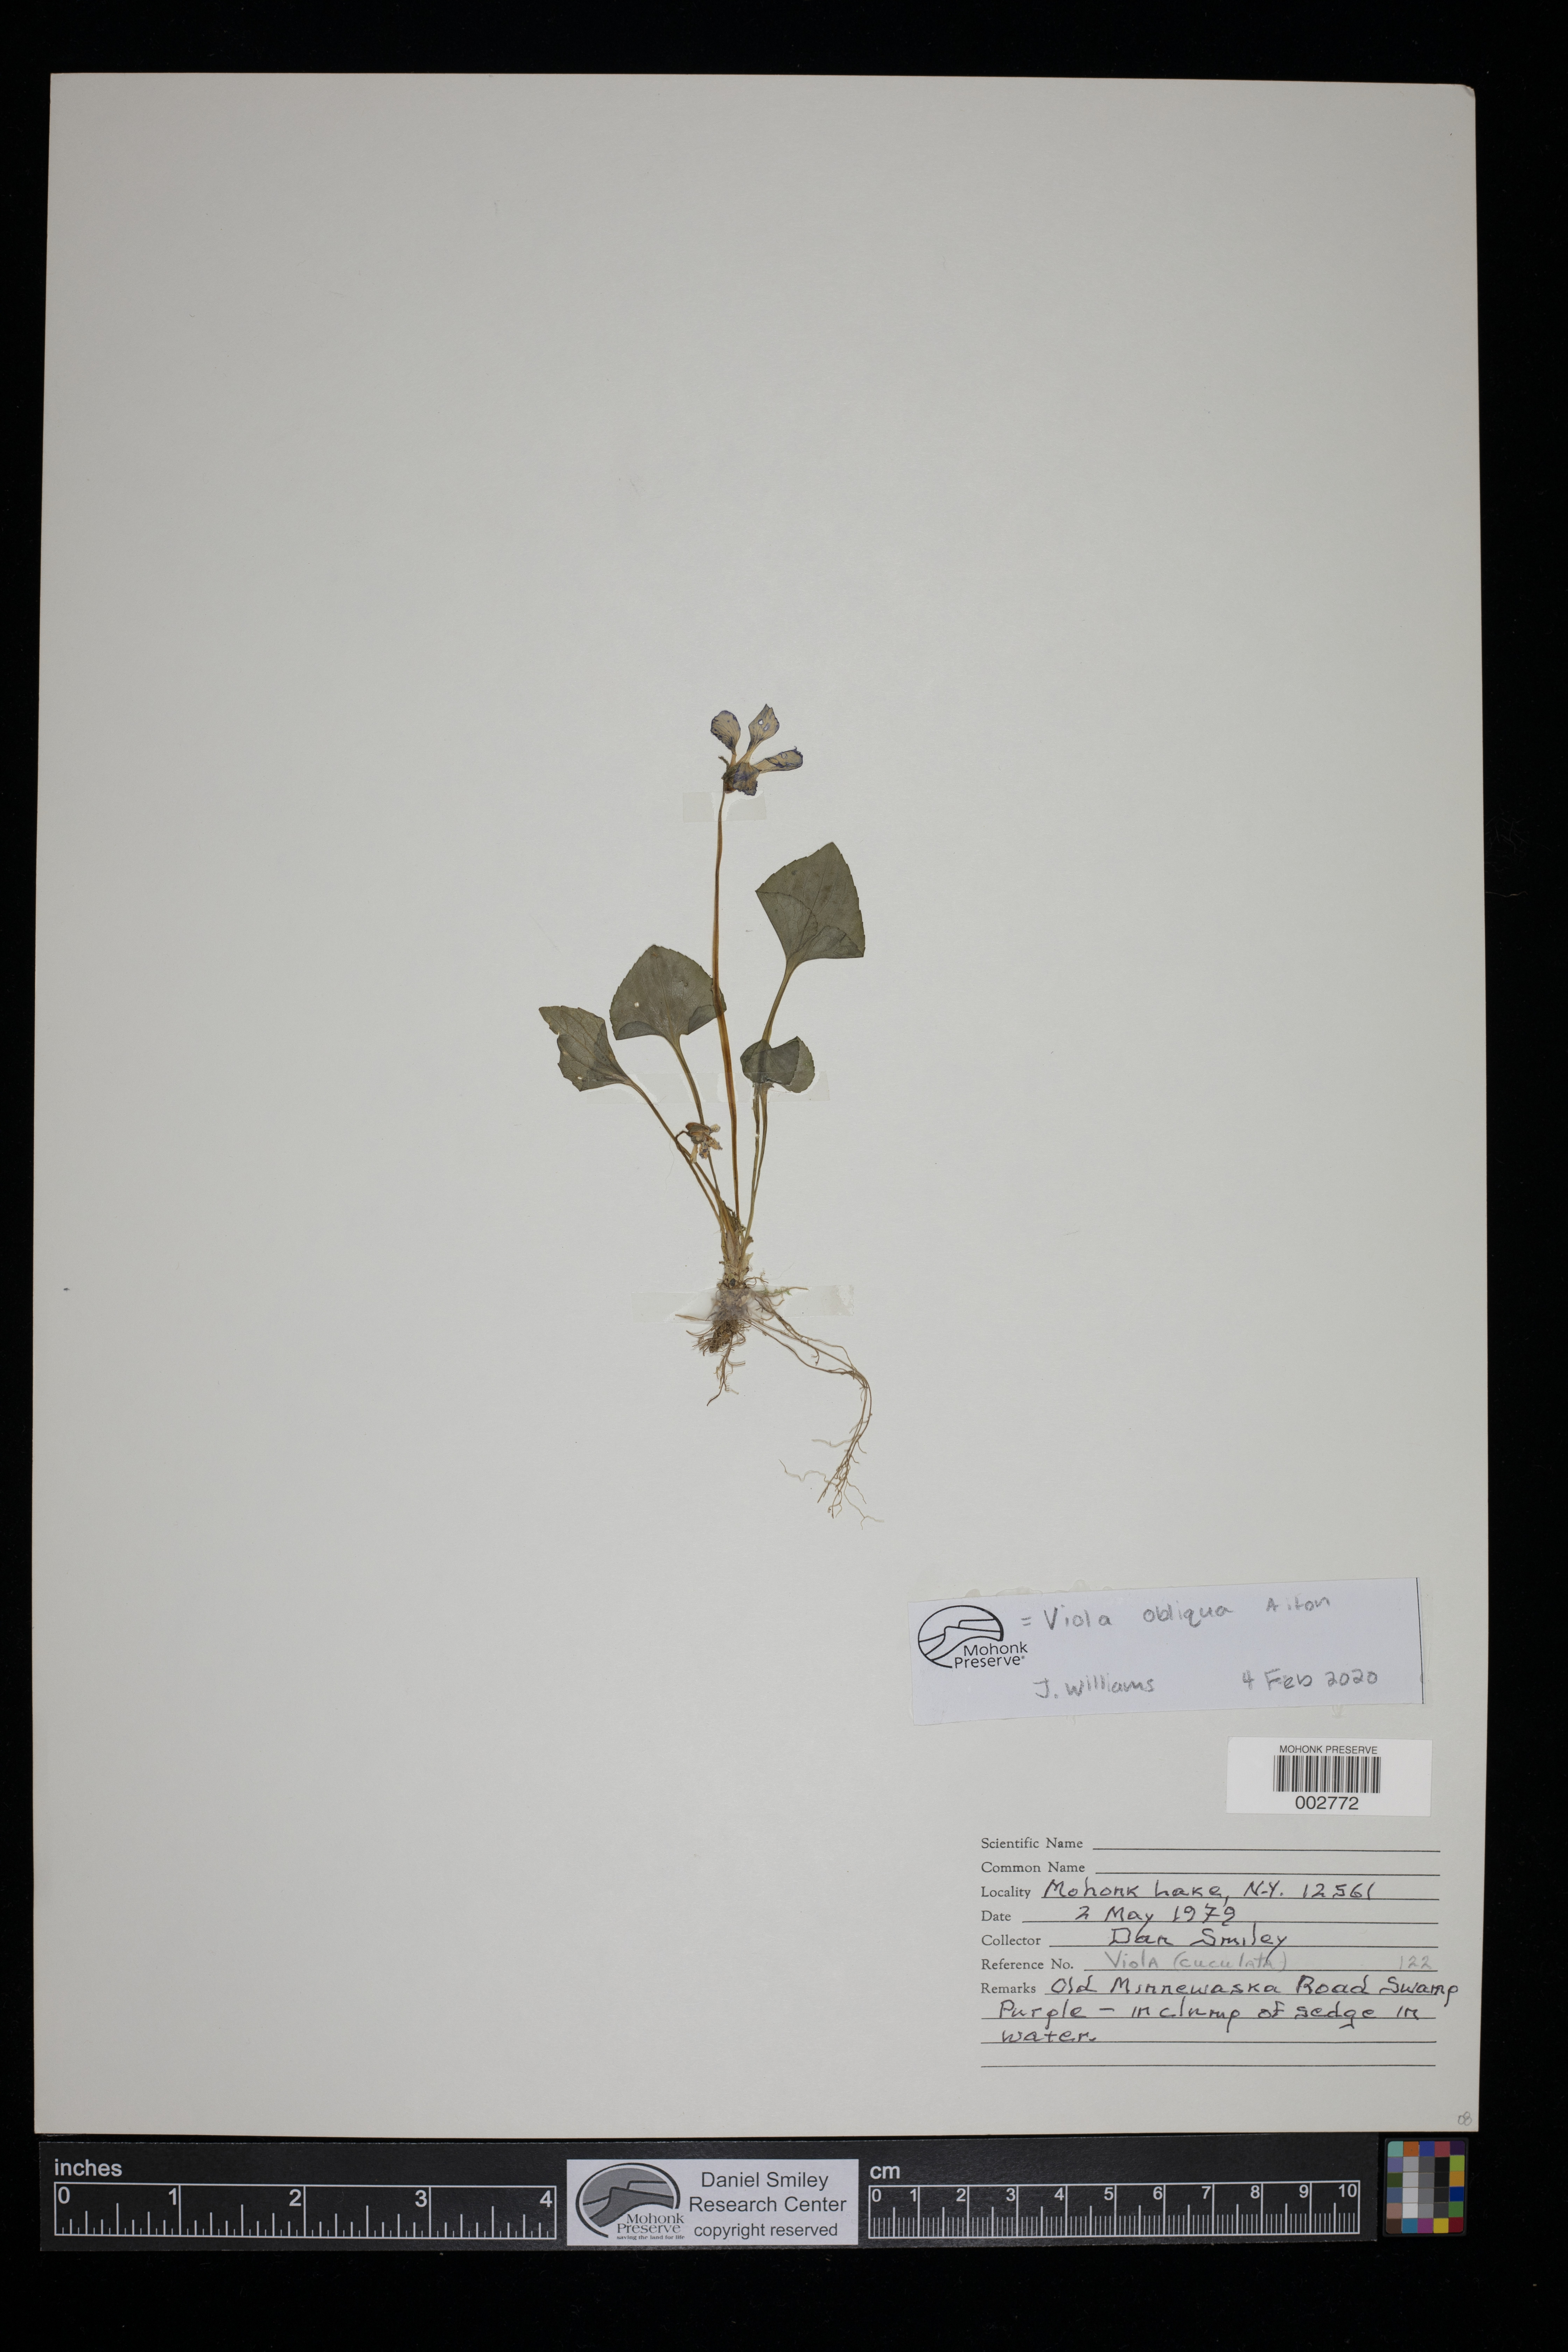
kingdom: Plantae
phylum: Tracheophyta
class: Magnoliopsida
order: Malpighiales
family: Violaceae
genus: Viola
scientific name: Viola cucullata
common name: Marsh blue violet
